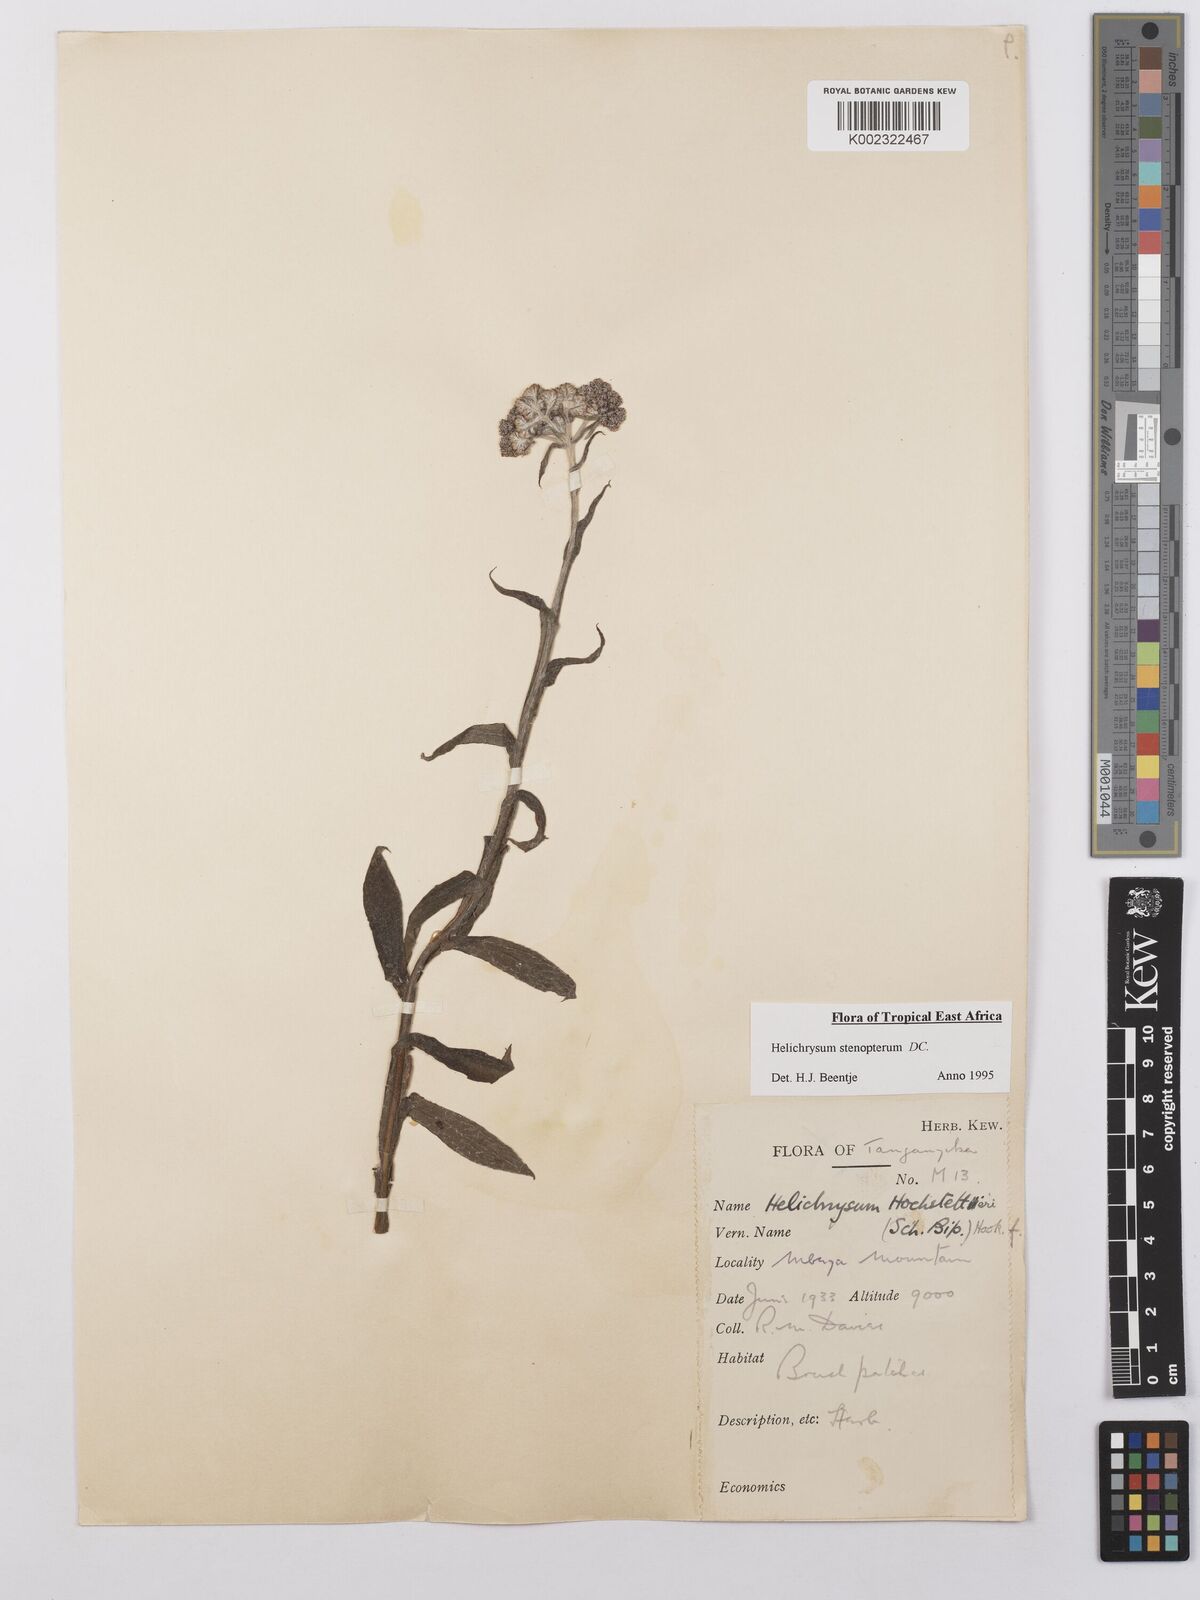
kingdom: Plantae
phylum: Tracheophyta
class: Magnoliopsida
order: Asterales
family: Asteraceae
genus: Helichrysum
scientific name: Helichrysum stenopterum
